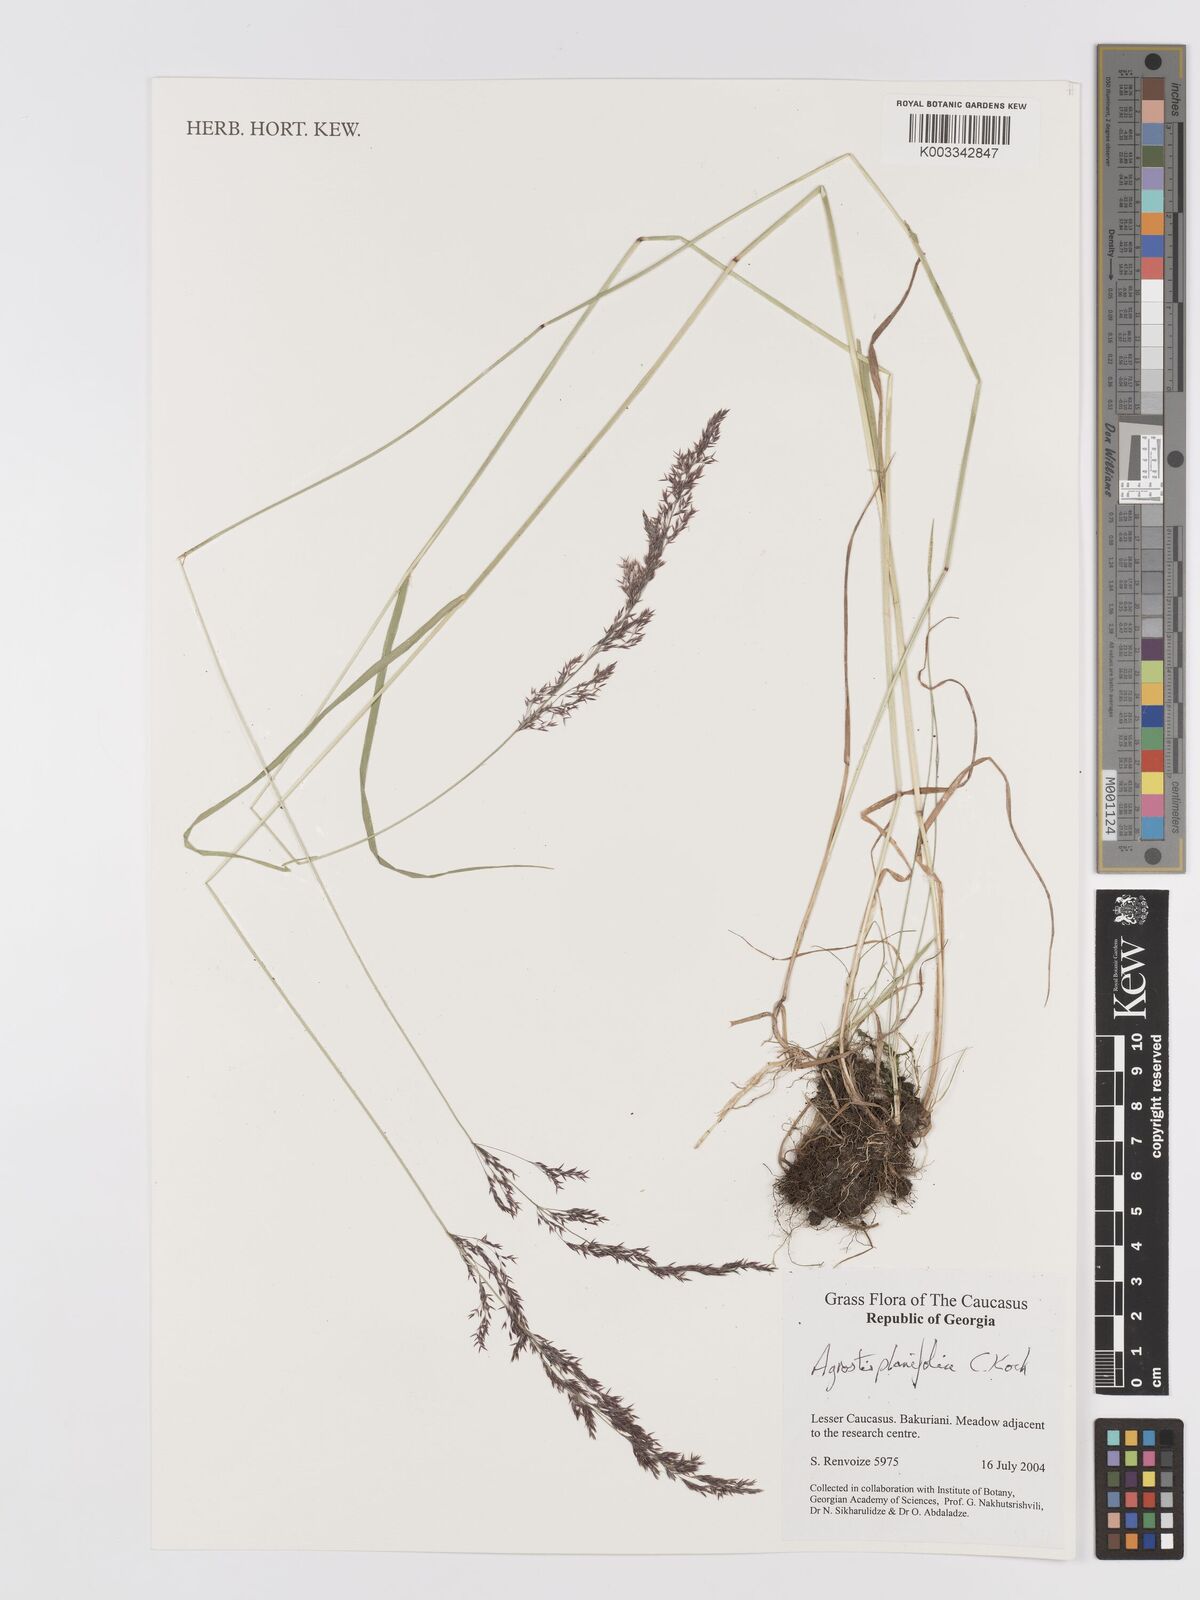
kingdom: Plantae
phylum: Tracheophyta
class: Liliopsida
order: Poales
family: Poaceae
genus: Agrostis
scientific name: Agrostis vinealis
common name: Brown bent
